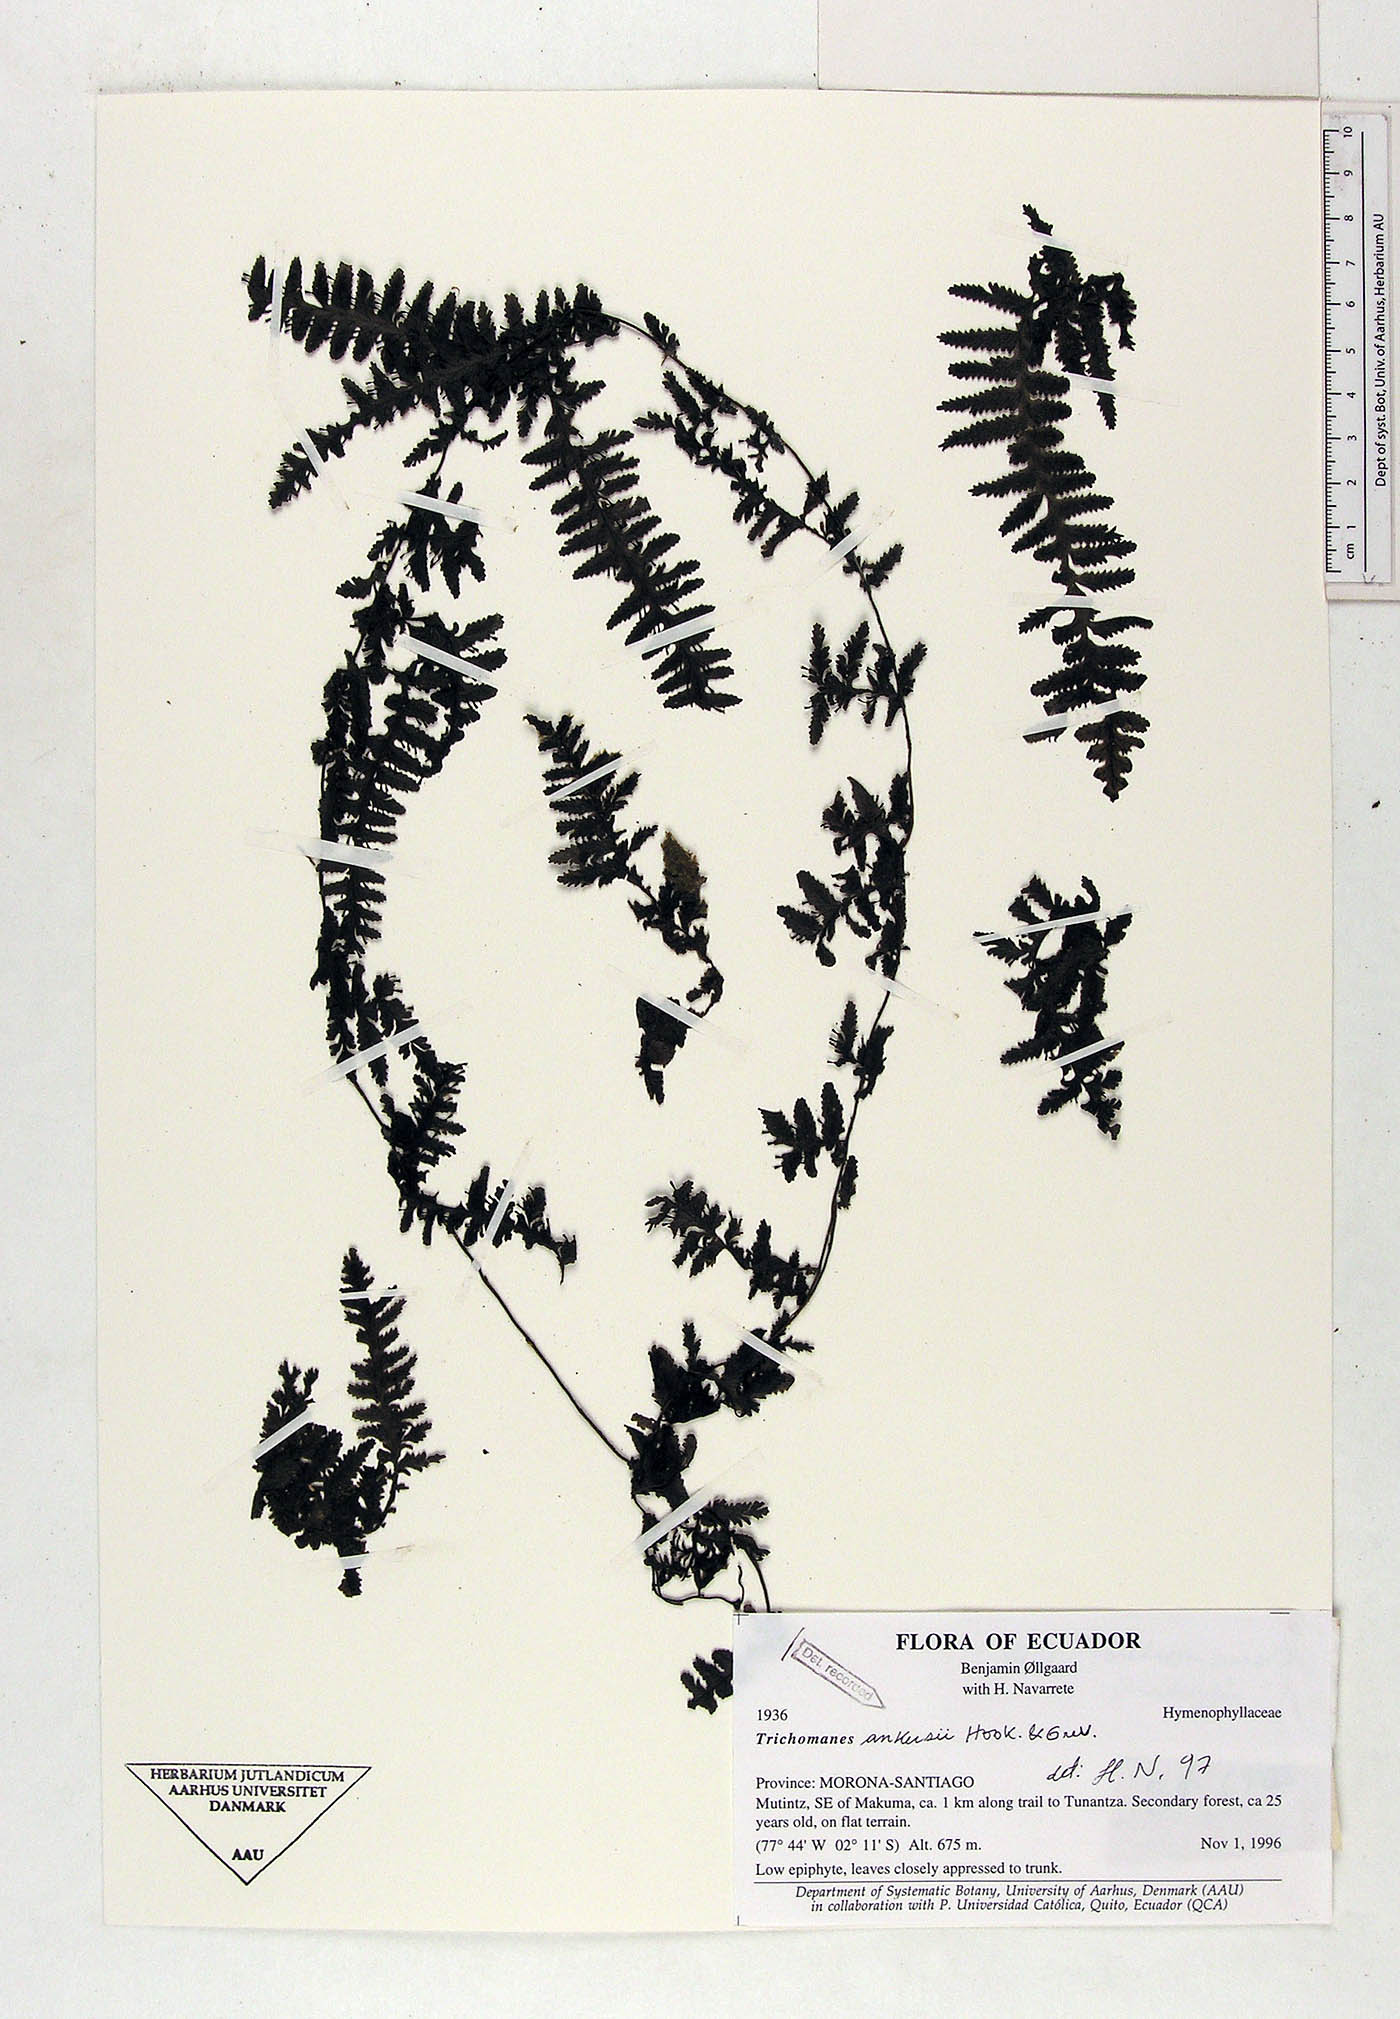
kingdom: Plantae
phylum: Tracheophyta
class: Polypodiopsida
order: Hymenophyllales
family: Hymenophyllaceae
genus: Trichomanes
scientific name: Trichomanes ankersii
